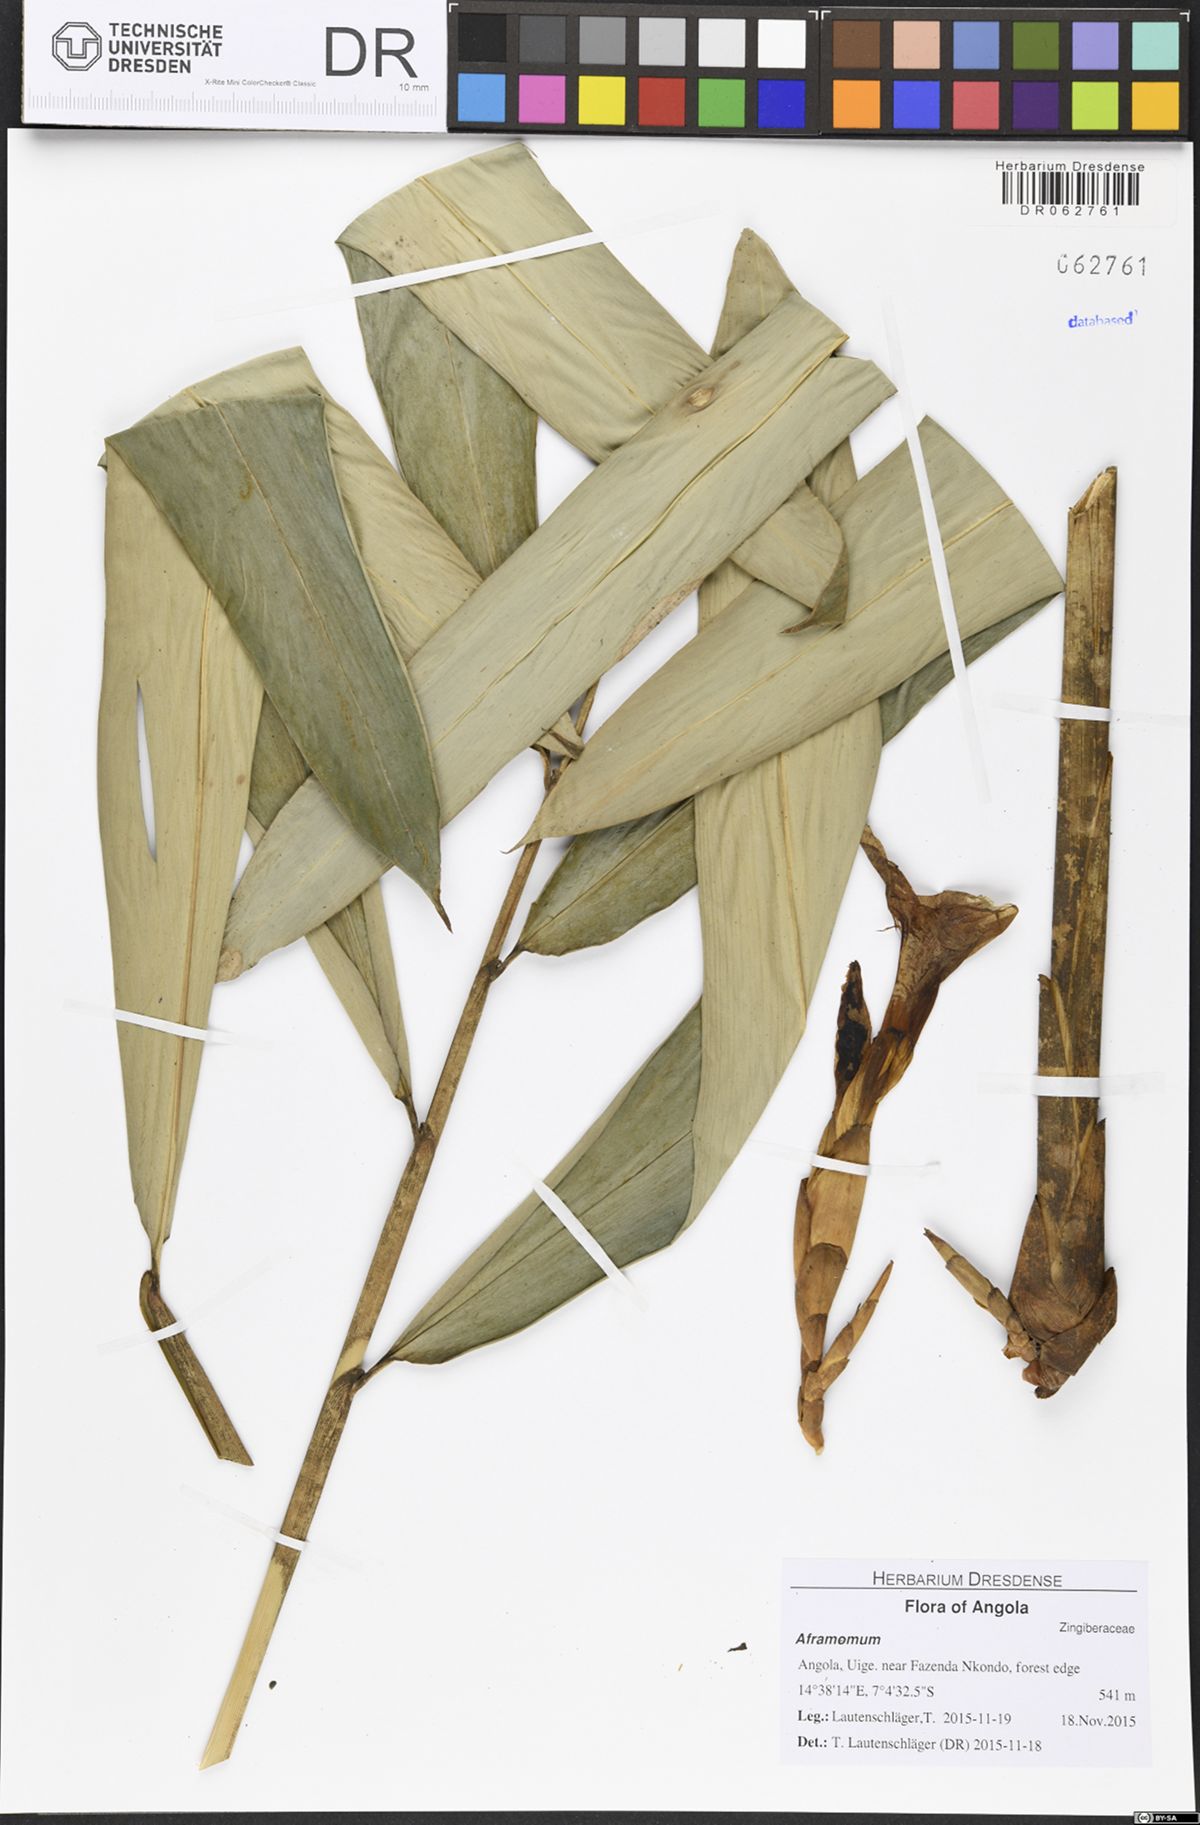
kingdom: Plantae
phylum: Tracheophyta
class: Liliopsida
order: Zingiberales
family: Zingiberaceae
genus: Aframomum
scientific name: Aframomum subsericeum
